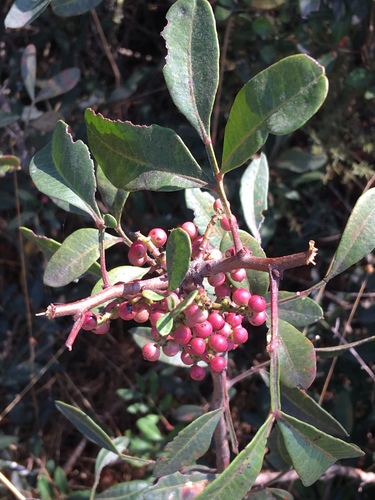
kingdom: Plantae
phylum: Tracheophyta
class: Magnoliopsida
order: Sapindales
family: Anacardiaceae
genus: Pistacia
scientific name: Pistacia lentiscus
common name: Lentisk
